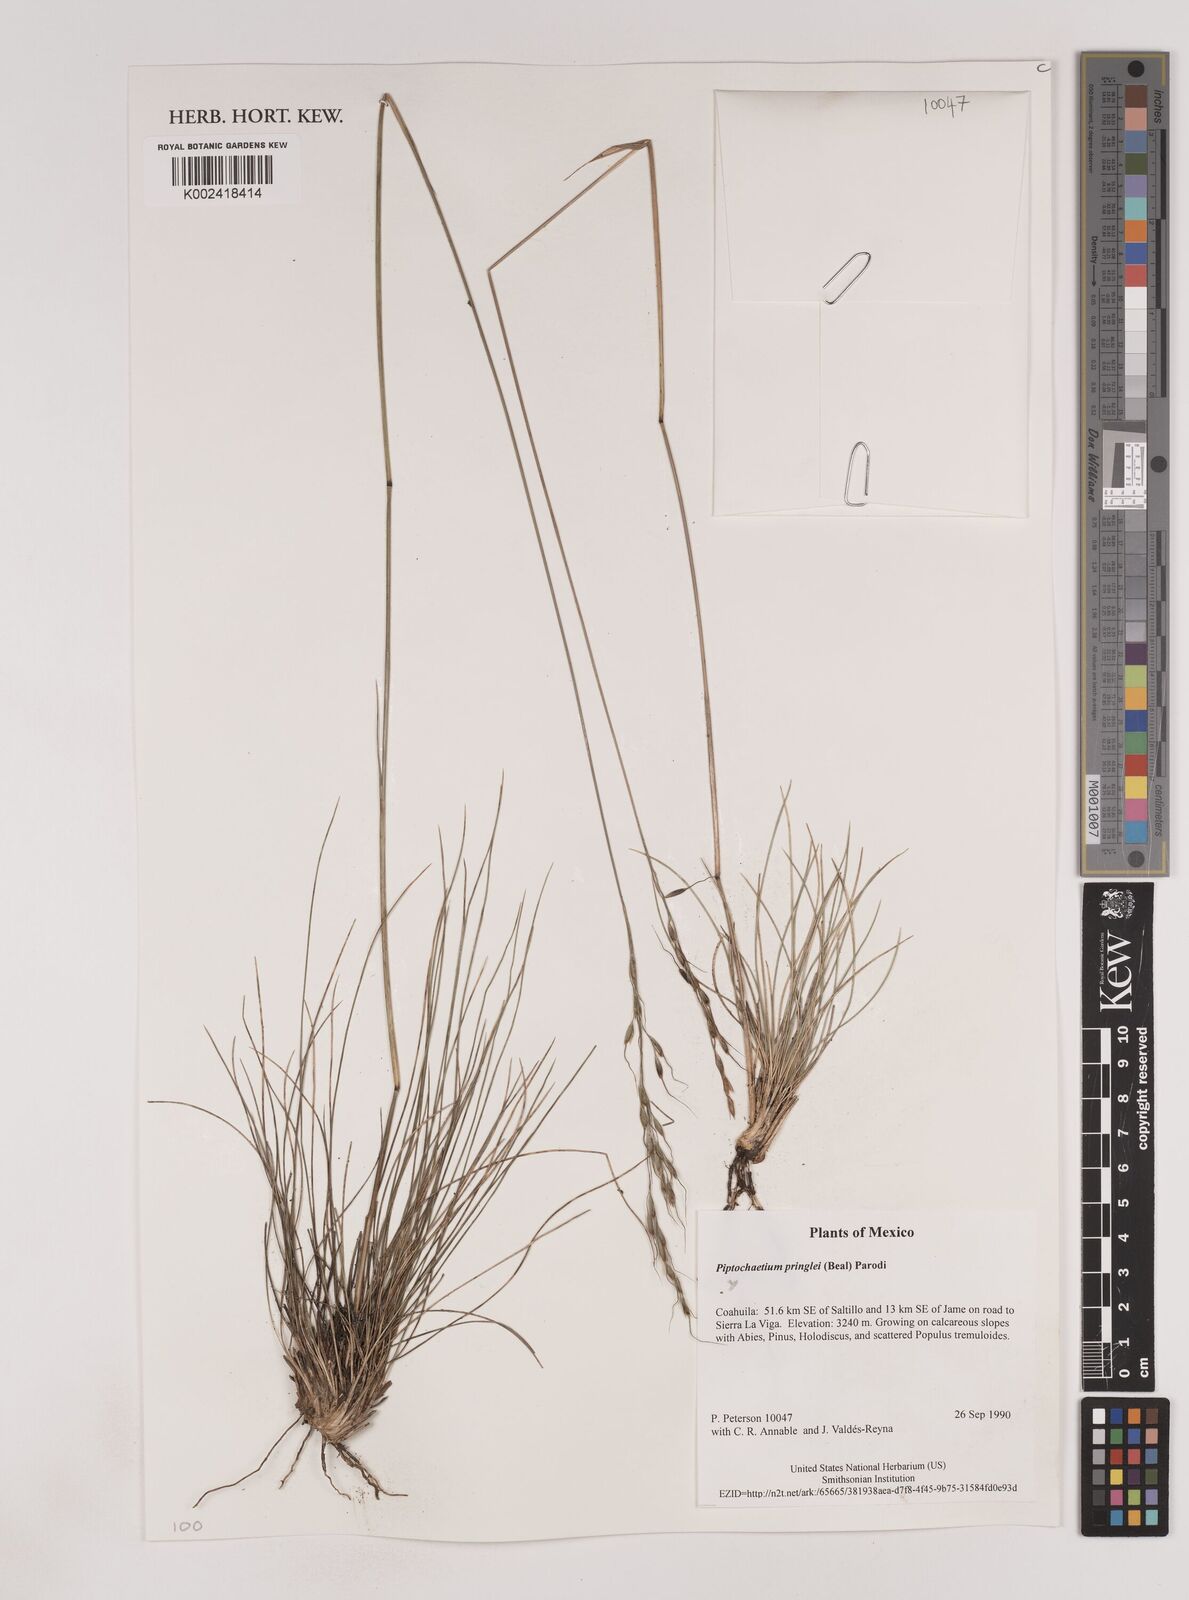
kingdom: Plantae
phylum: Tracheophyta
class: Liliopsida
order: Poales
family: Poaceae
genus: Piptochaetium
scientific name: Piptochaetium pringlei
